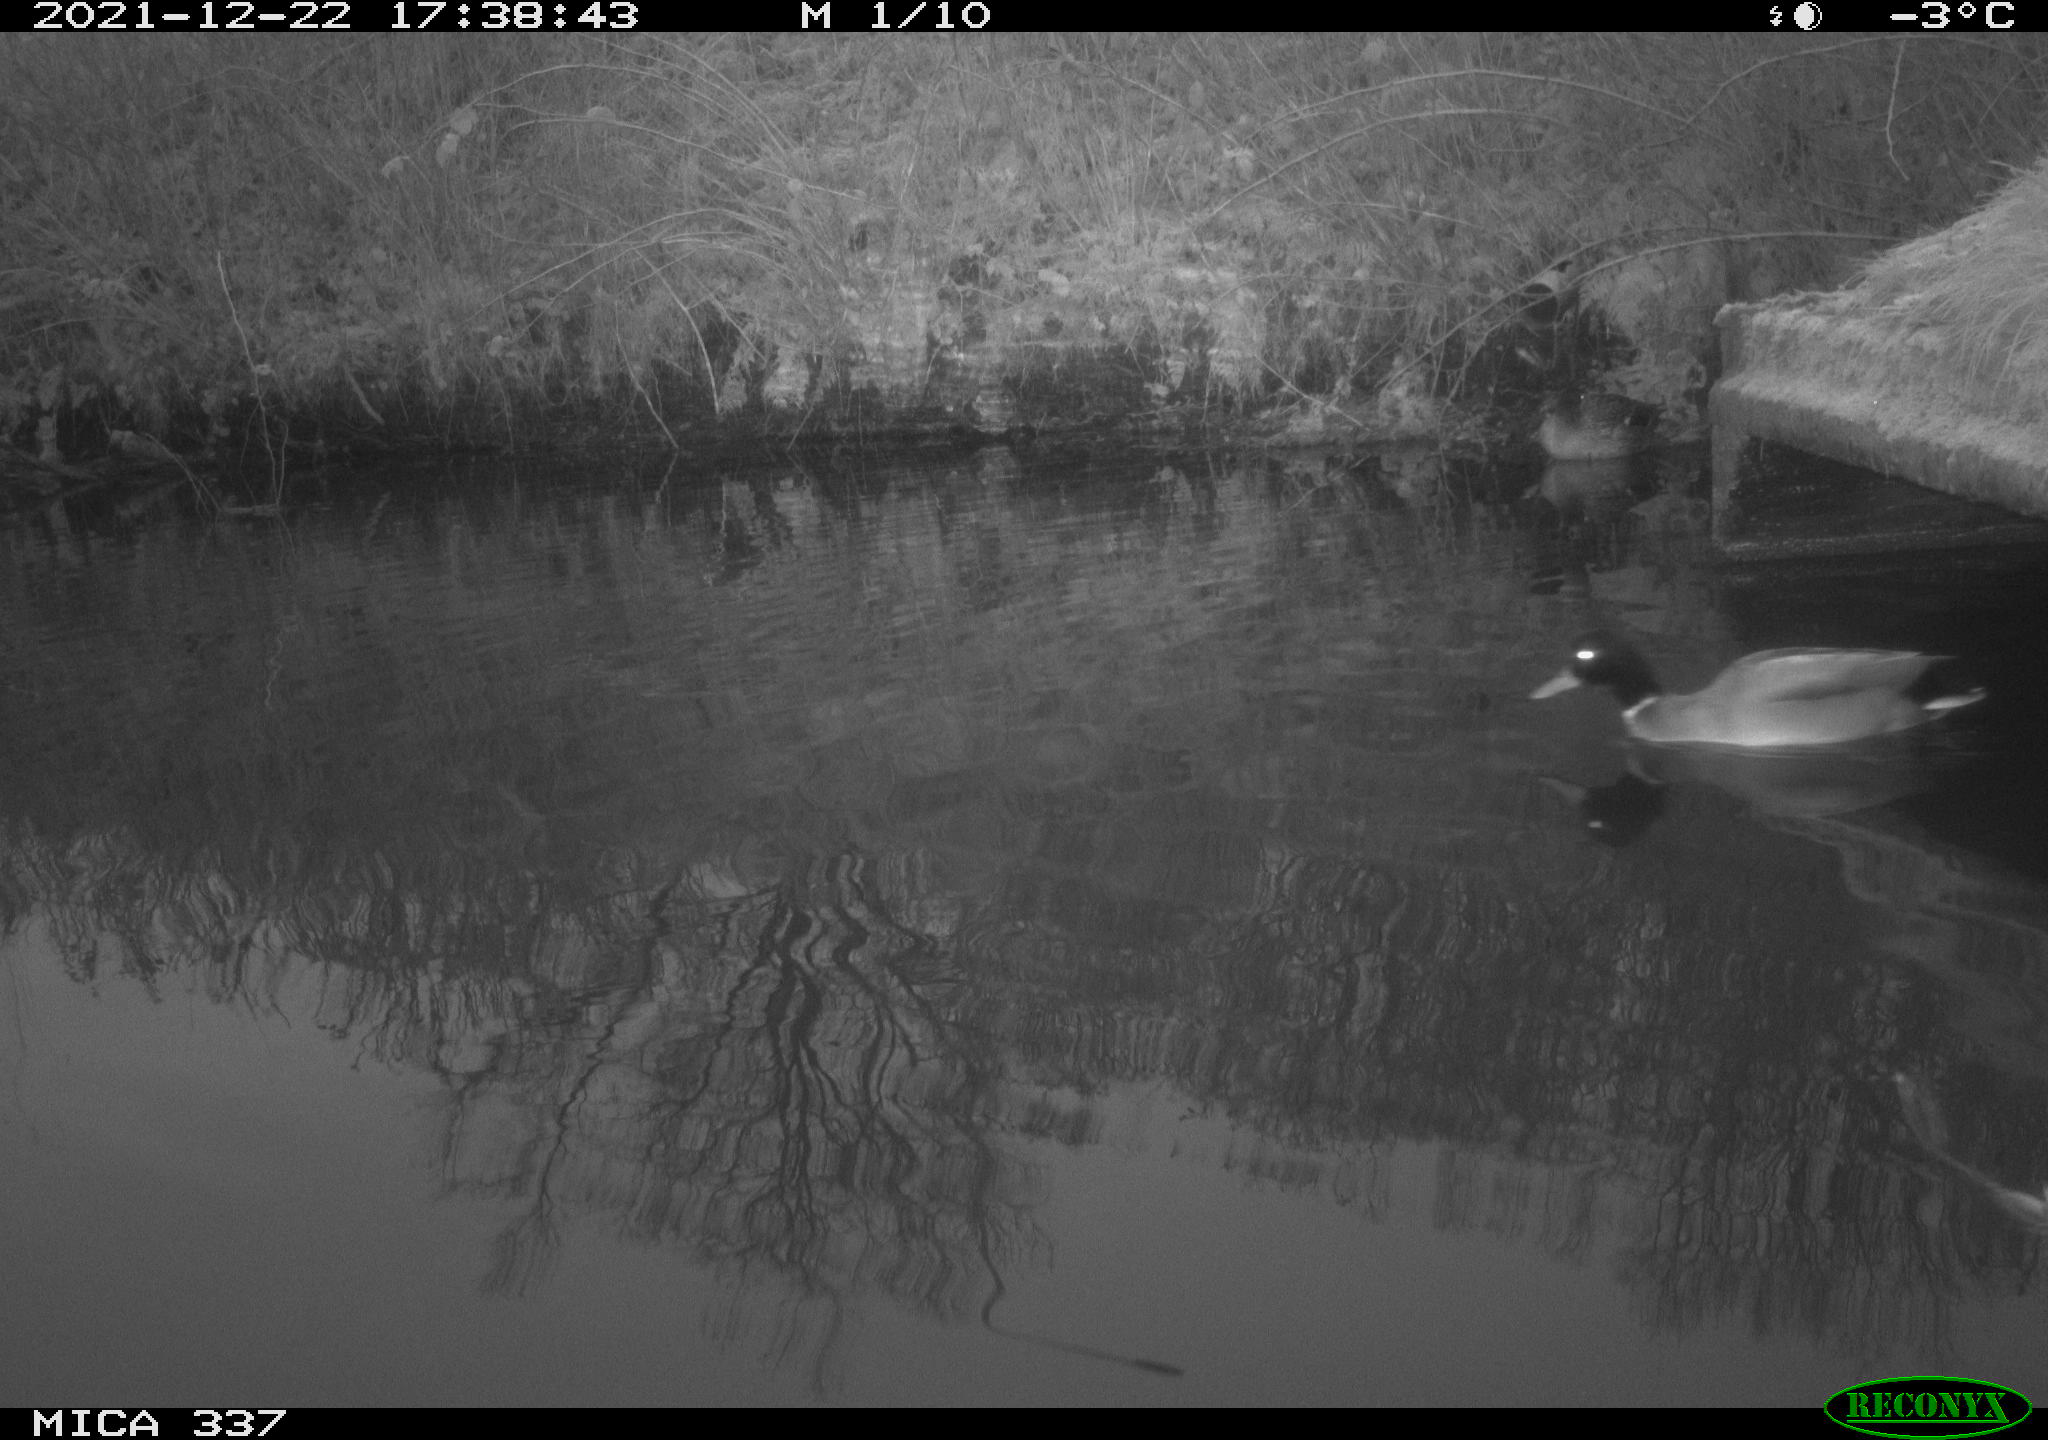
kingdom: Animalia
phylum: Chordata
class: Aves
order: Anseriformes
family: Anatidae
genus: Anas
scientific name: Anas platyrhynchos
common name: Mallard
